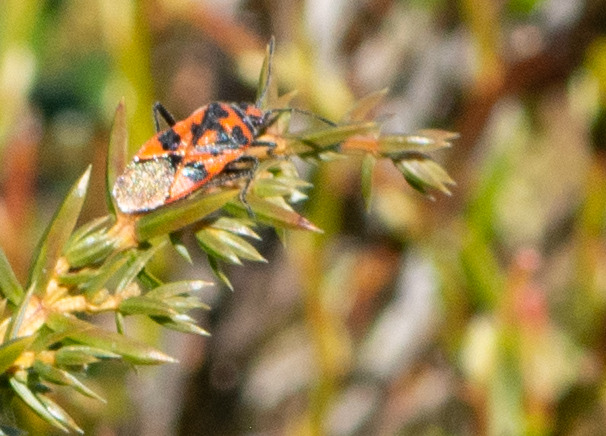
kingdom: Animalia
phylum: Arthropoda
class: Insecta
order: Hemiptera
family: Rhopalidae
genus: Corizus
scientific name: Corizus hyoscyami
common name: Rød kanttæge
